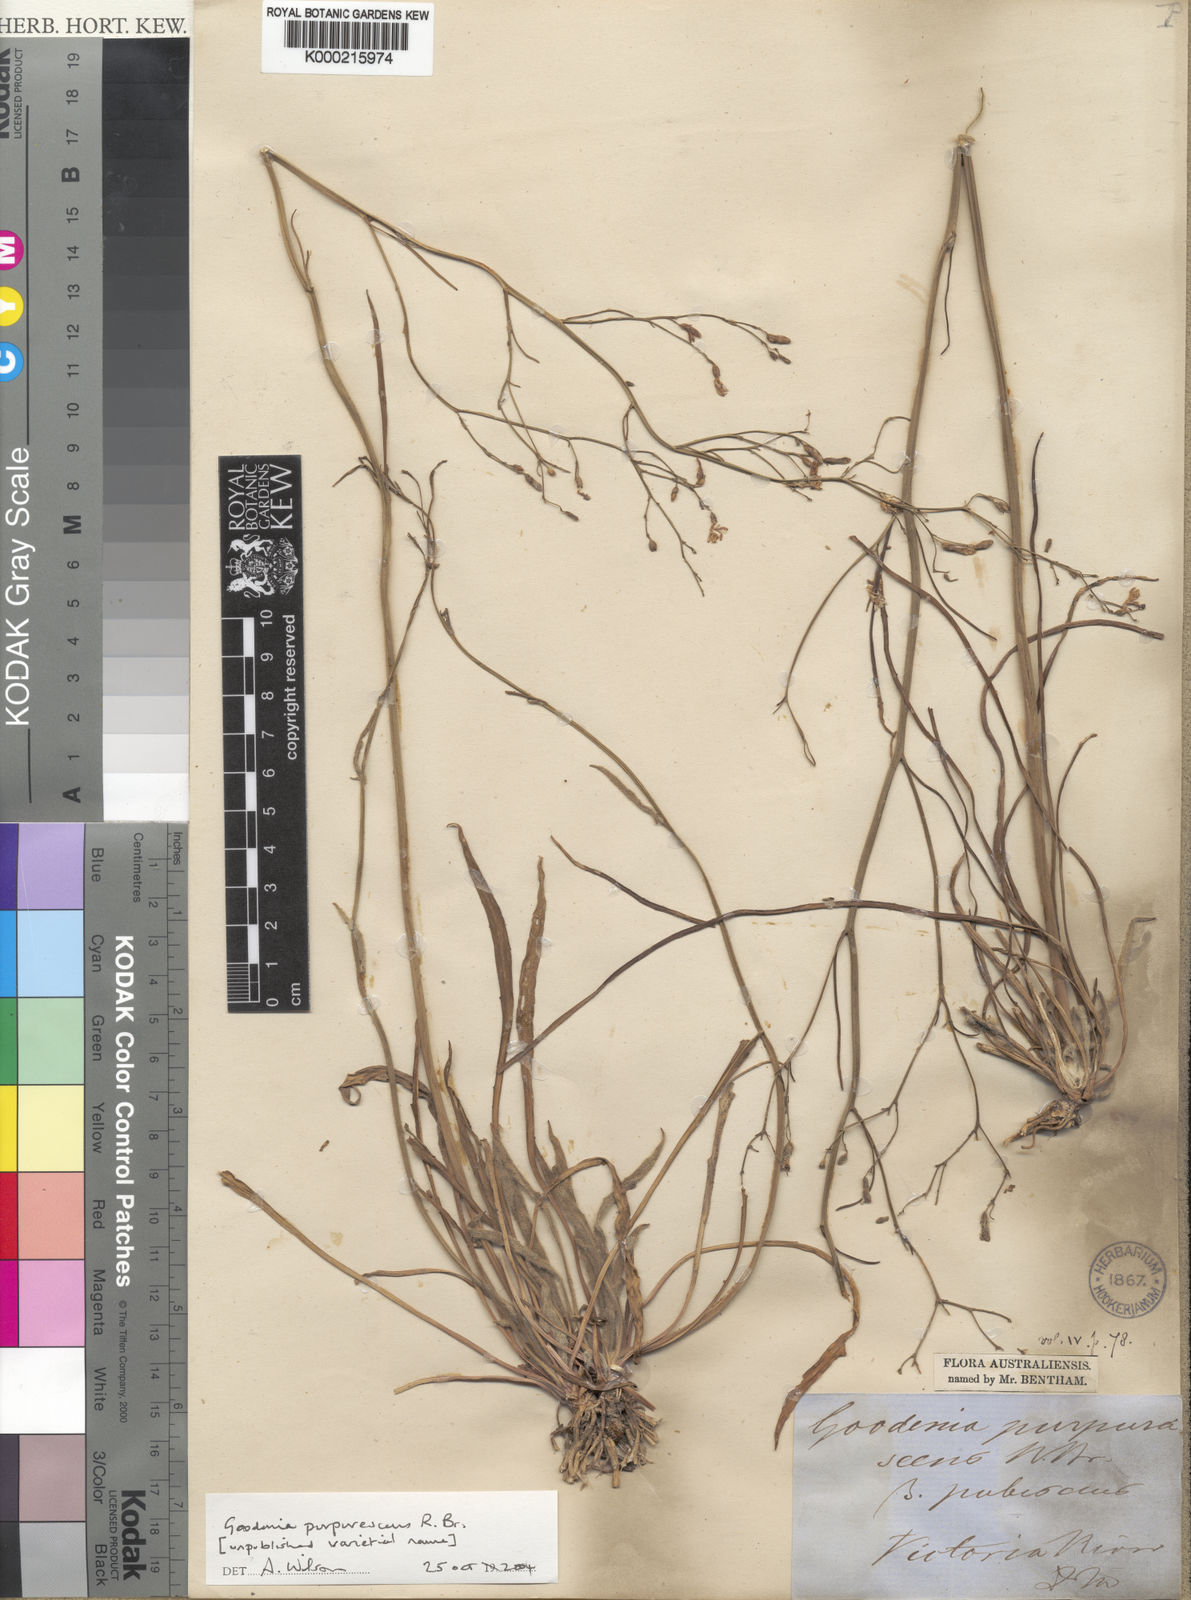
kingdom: Plantae
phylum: Tracheophyta
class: Magnoliopsida
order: Asterales
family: Goodeniaceae
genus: Goodenia
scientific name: Goodenia purpurascens
